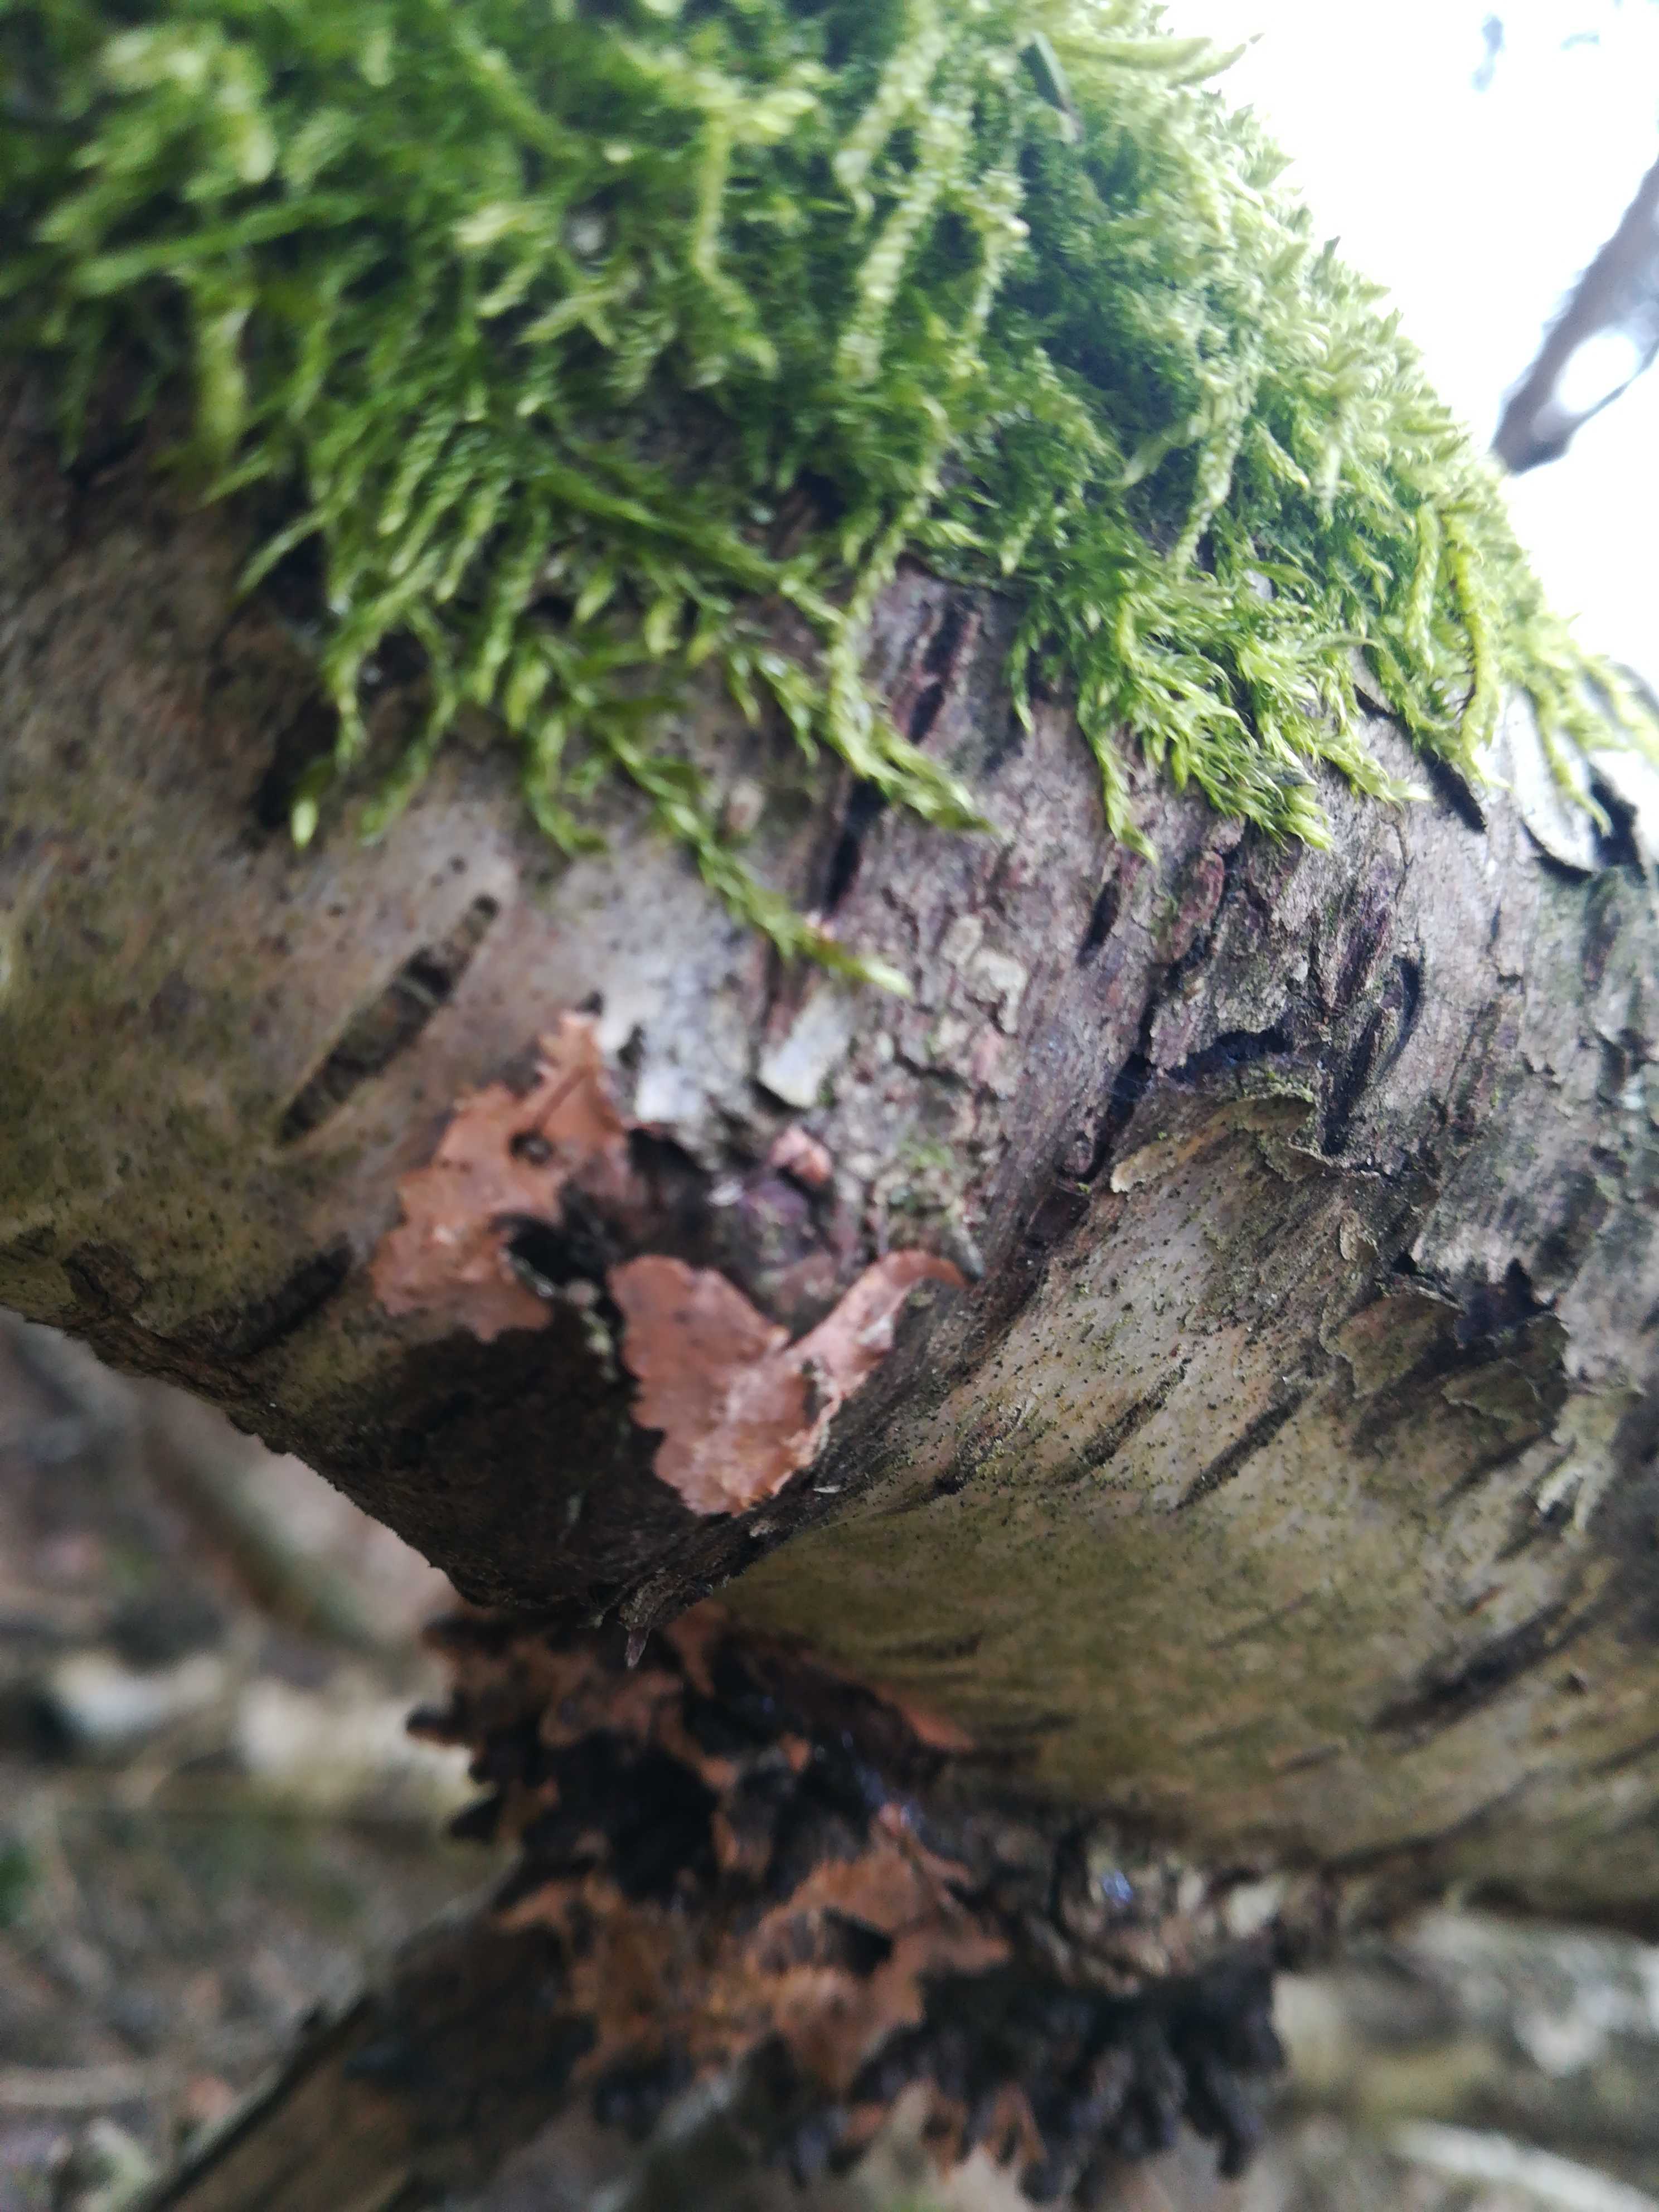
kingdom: Fungi
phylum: Basidiomycota
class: Agaricomycetes
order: Russulales
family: Peniophoraceae
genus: Peniophora
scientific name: Peniophora incarnata
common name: laksefarvet voksskind
